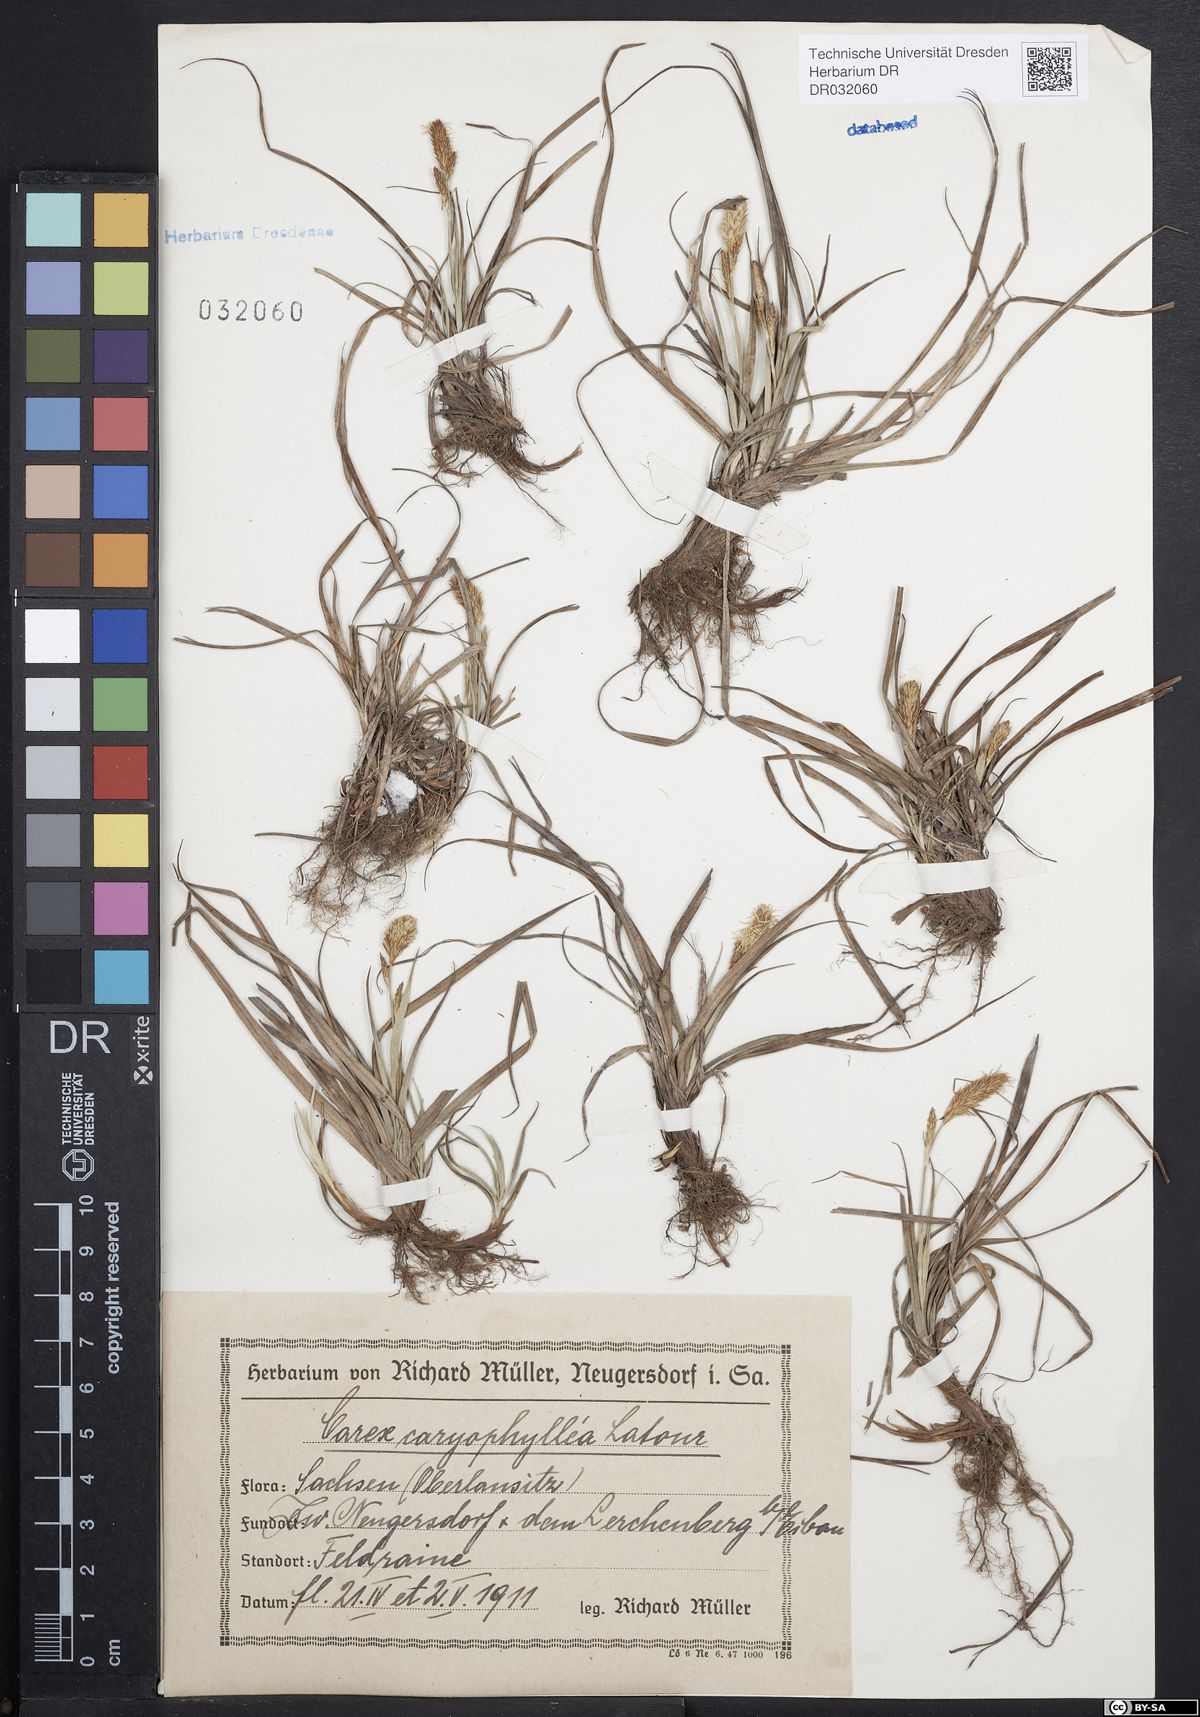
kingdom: Plantae
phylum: Tracheophyta
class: Liliopsida
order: Poales
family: Cyperaceae
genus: Carex
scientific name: Carex caryophyllea
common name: Spring sedge
